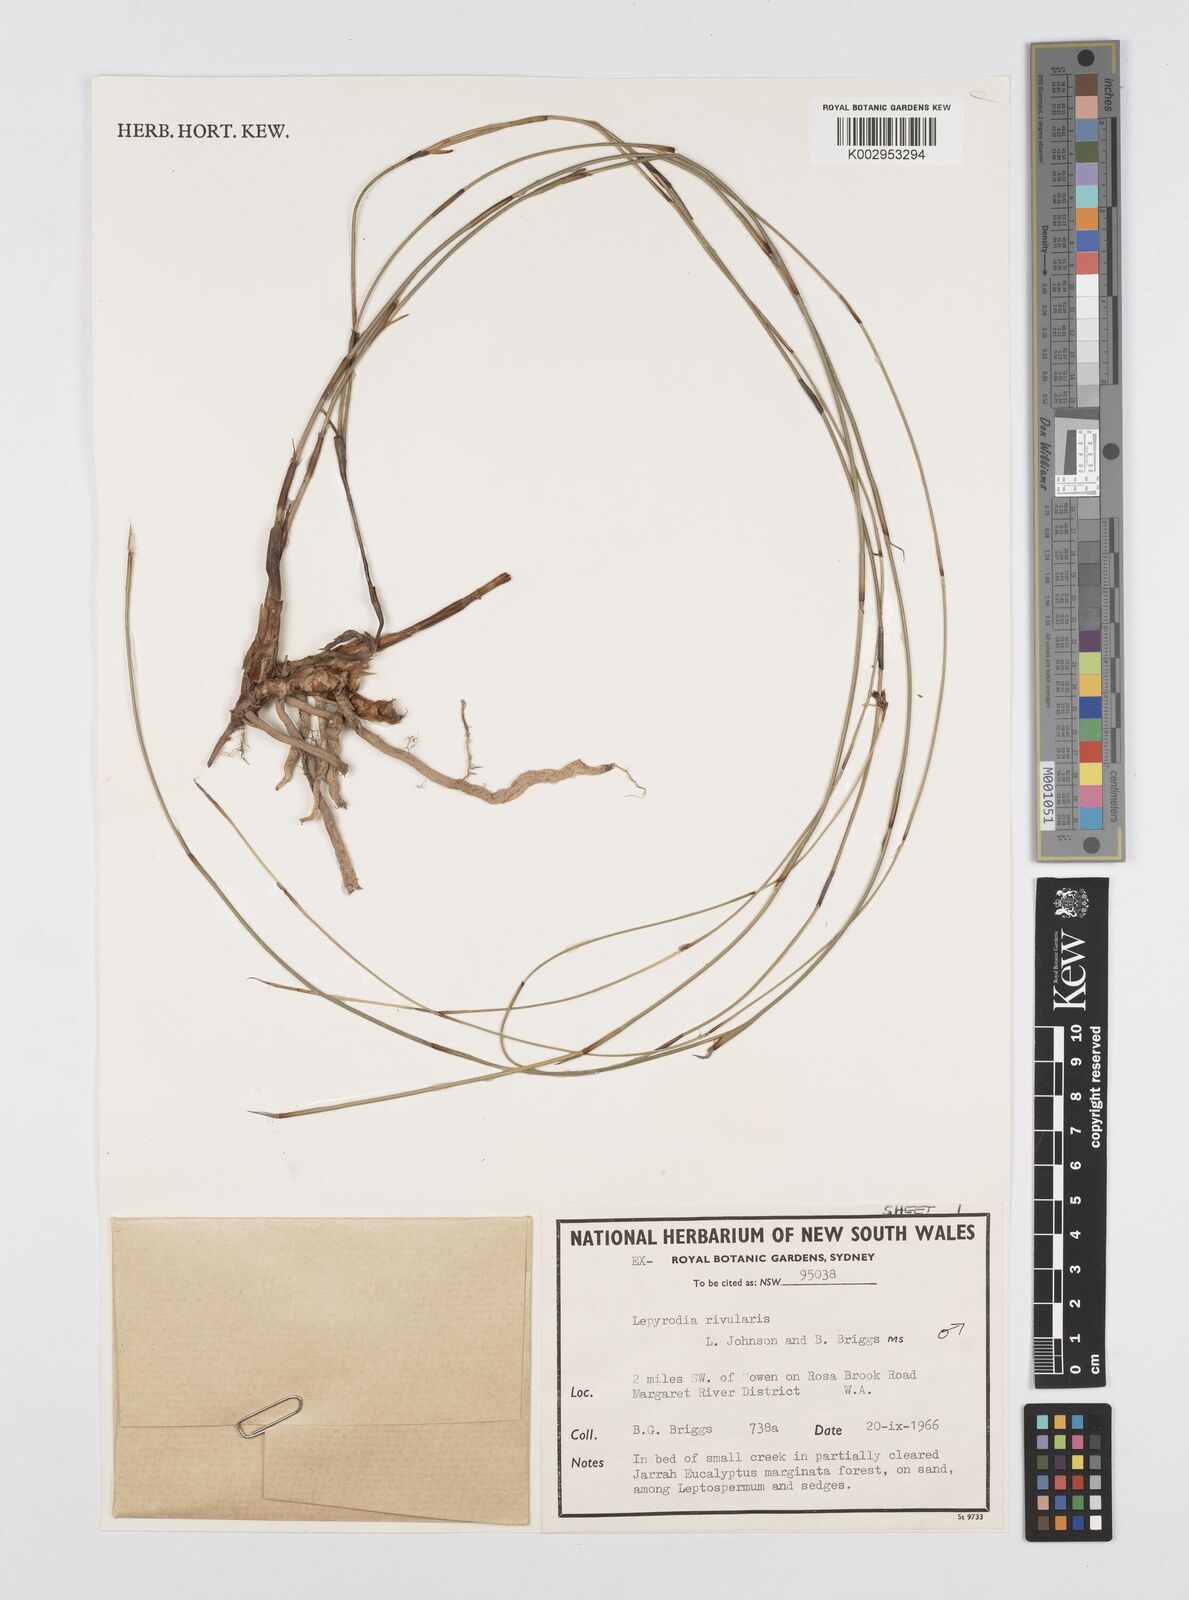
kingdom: Plantae
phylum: Tracheophyta
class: Liliopsida
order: Poales
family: Restionaceae
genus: Sporadanthus
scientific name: Sporadanthus rivularis
